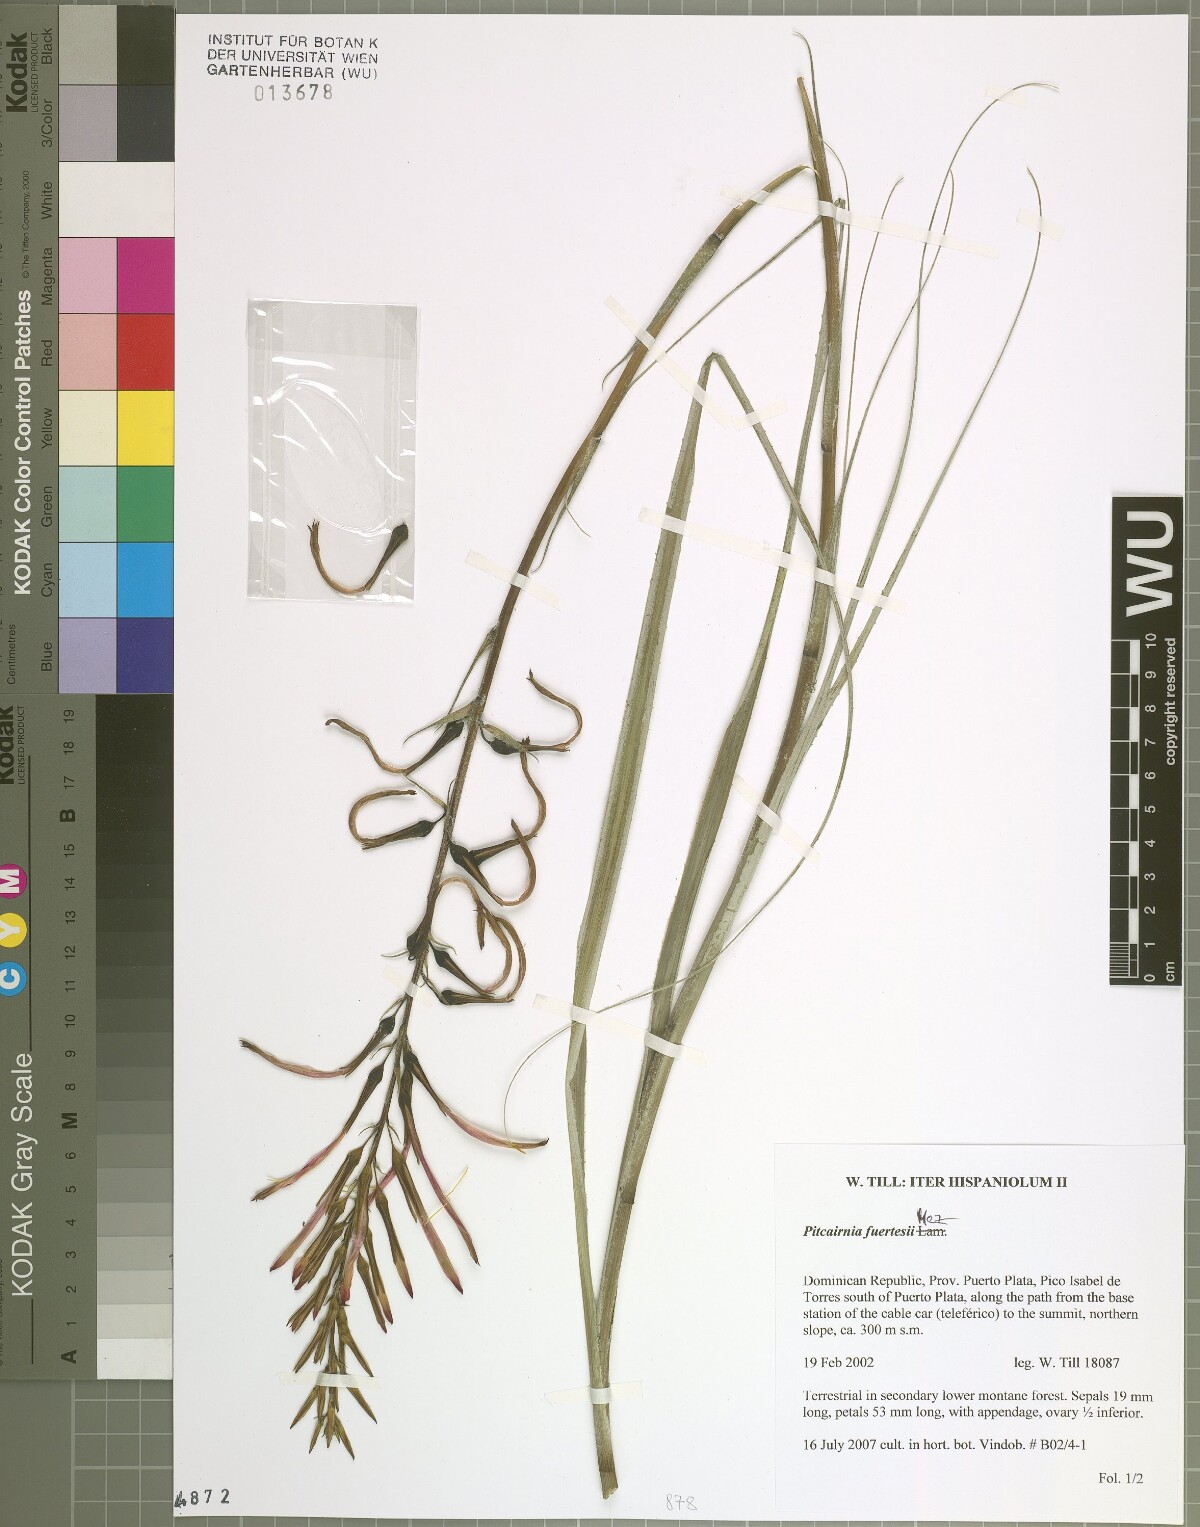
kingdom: Plantae
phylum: Tracheophyta
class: Liliopsida
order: Poales
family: Bromeliaceae
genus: Pitcairnia
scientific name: Pitcairnia fuertesii
